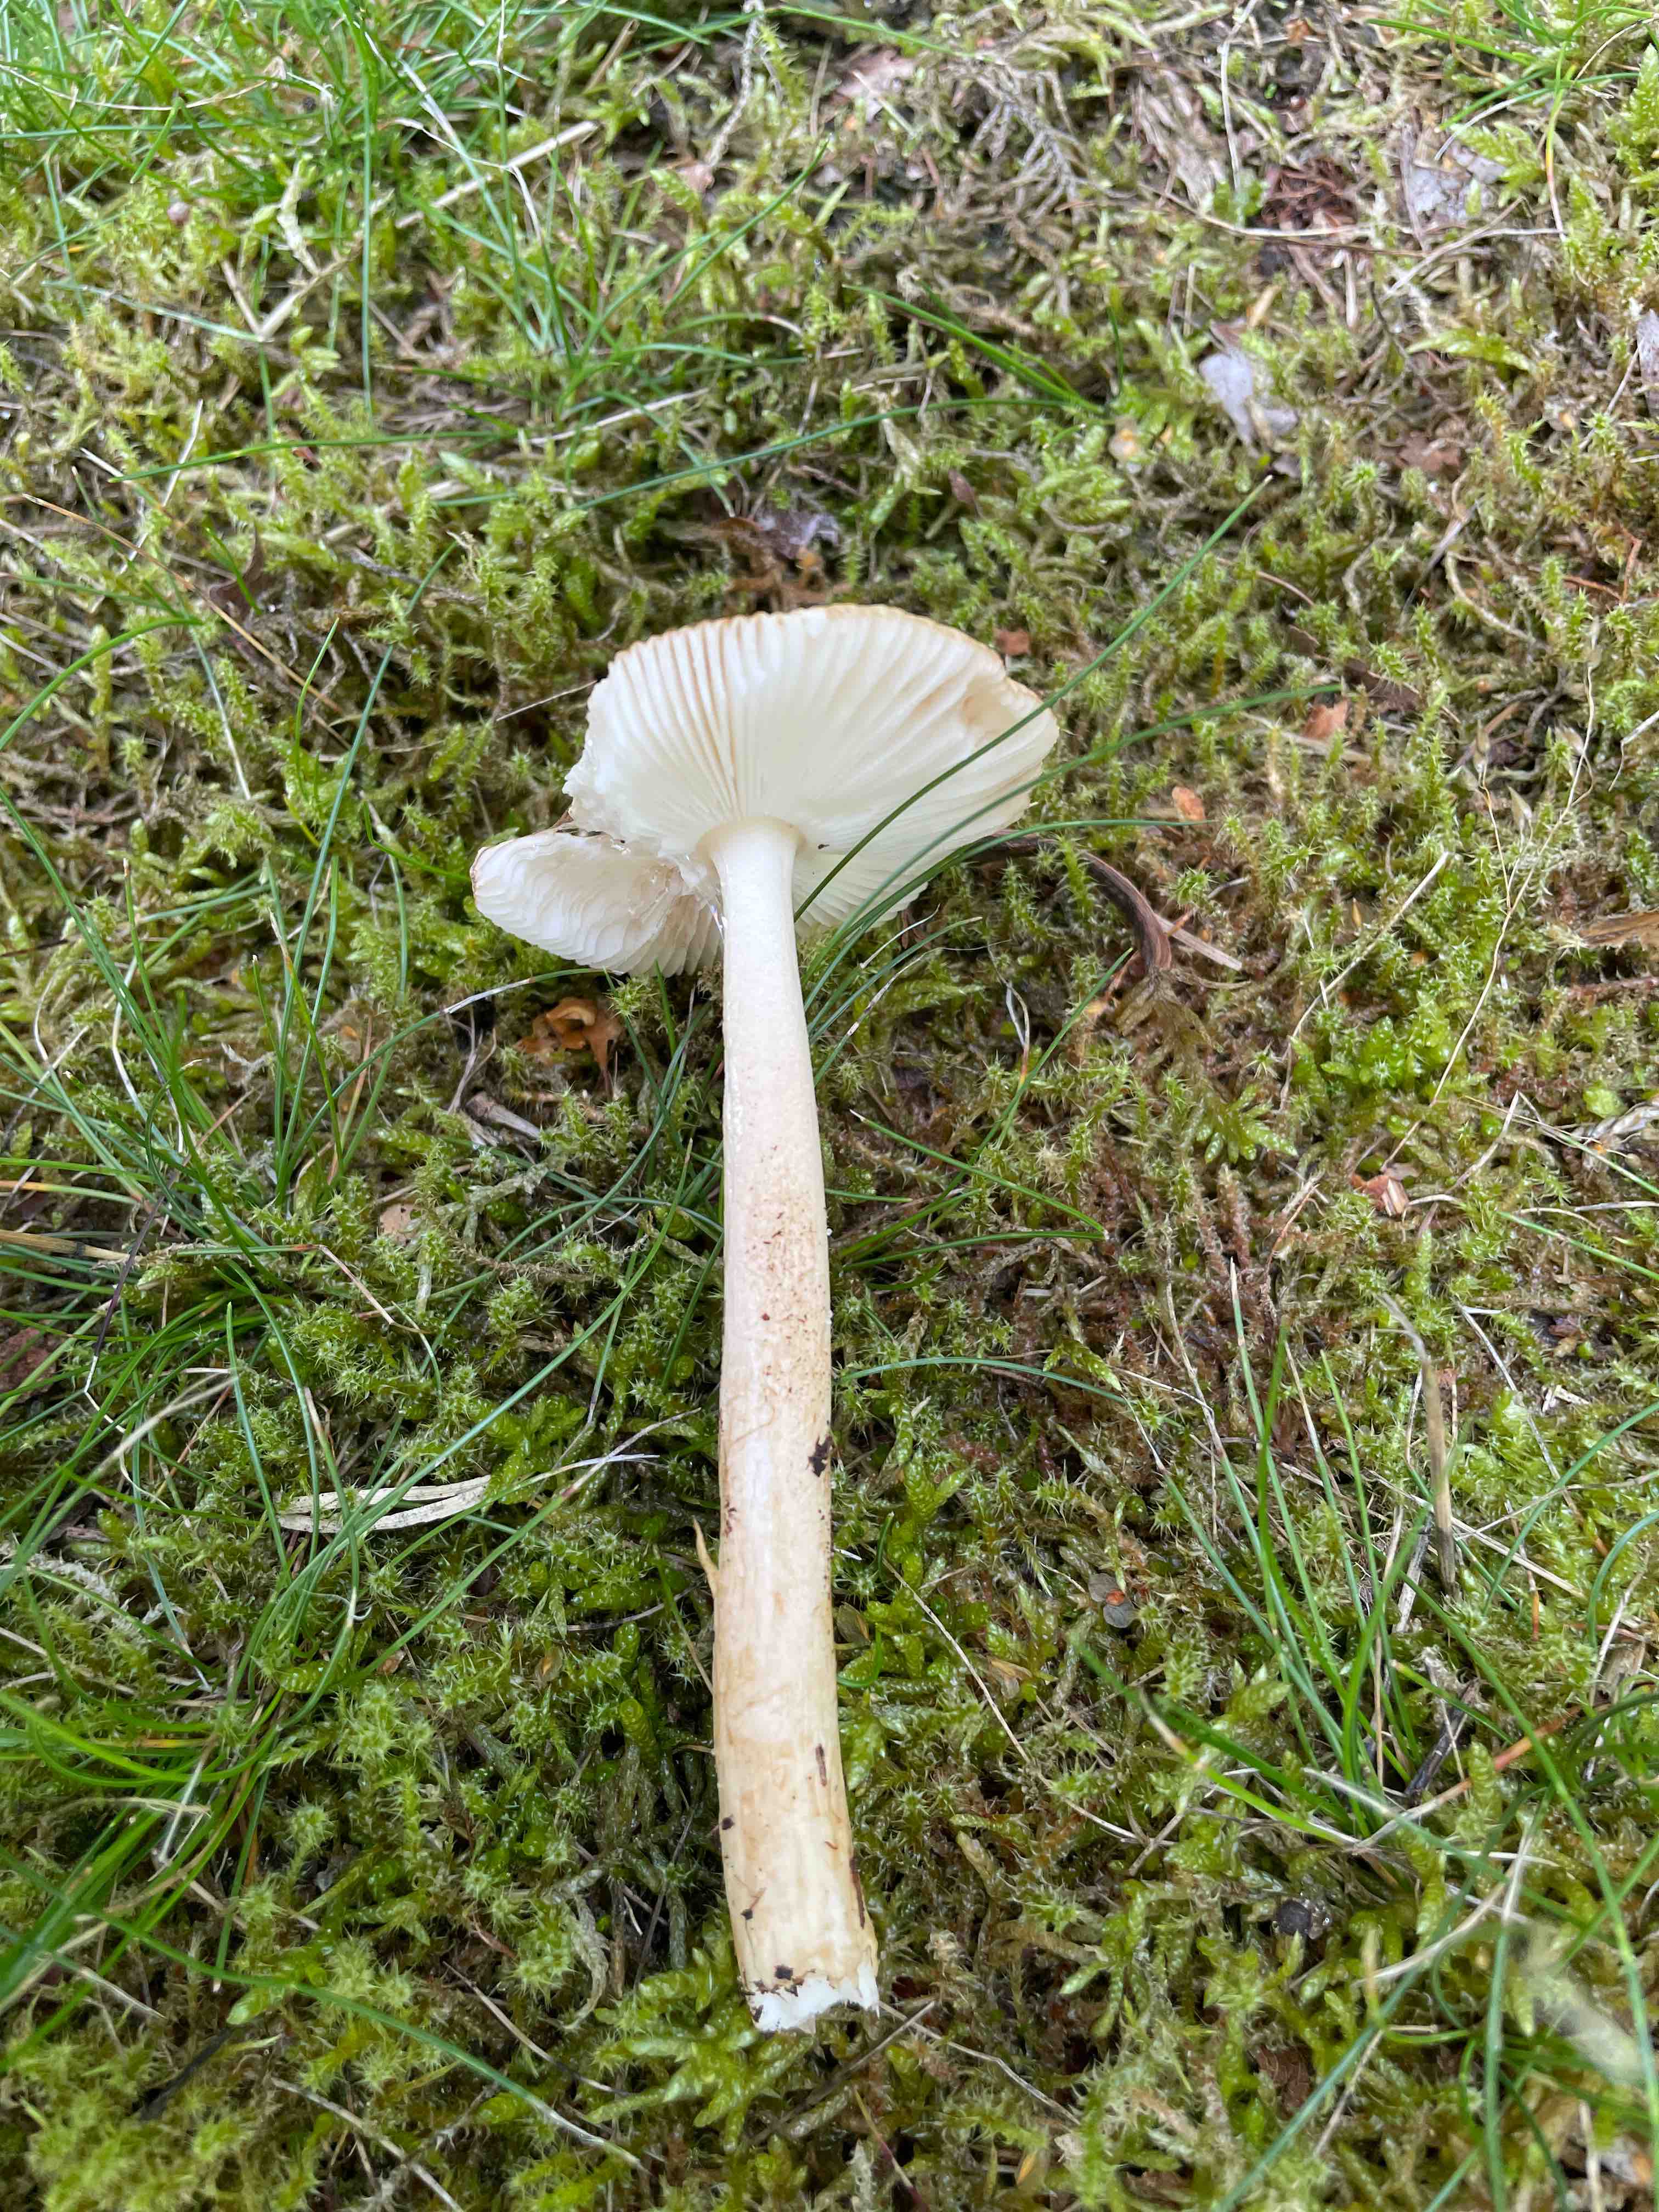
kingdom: Fungi
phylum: Basidiomycota
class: Agaricomycetes
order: Agaricales
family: Amanitaceae
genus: Amanita
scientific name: Amanita fulva
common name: brun kam-fluesvamp
